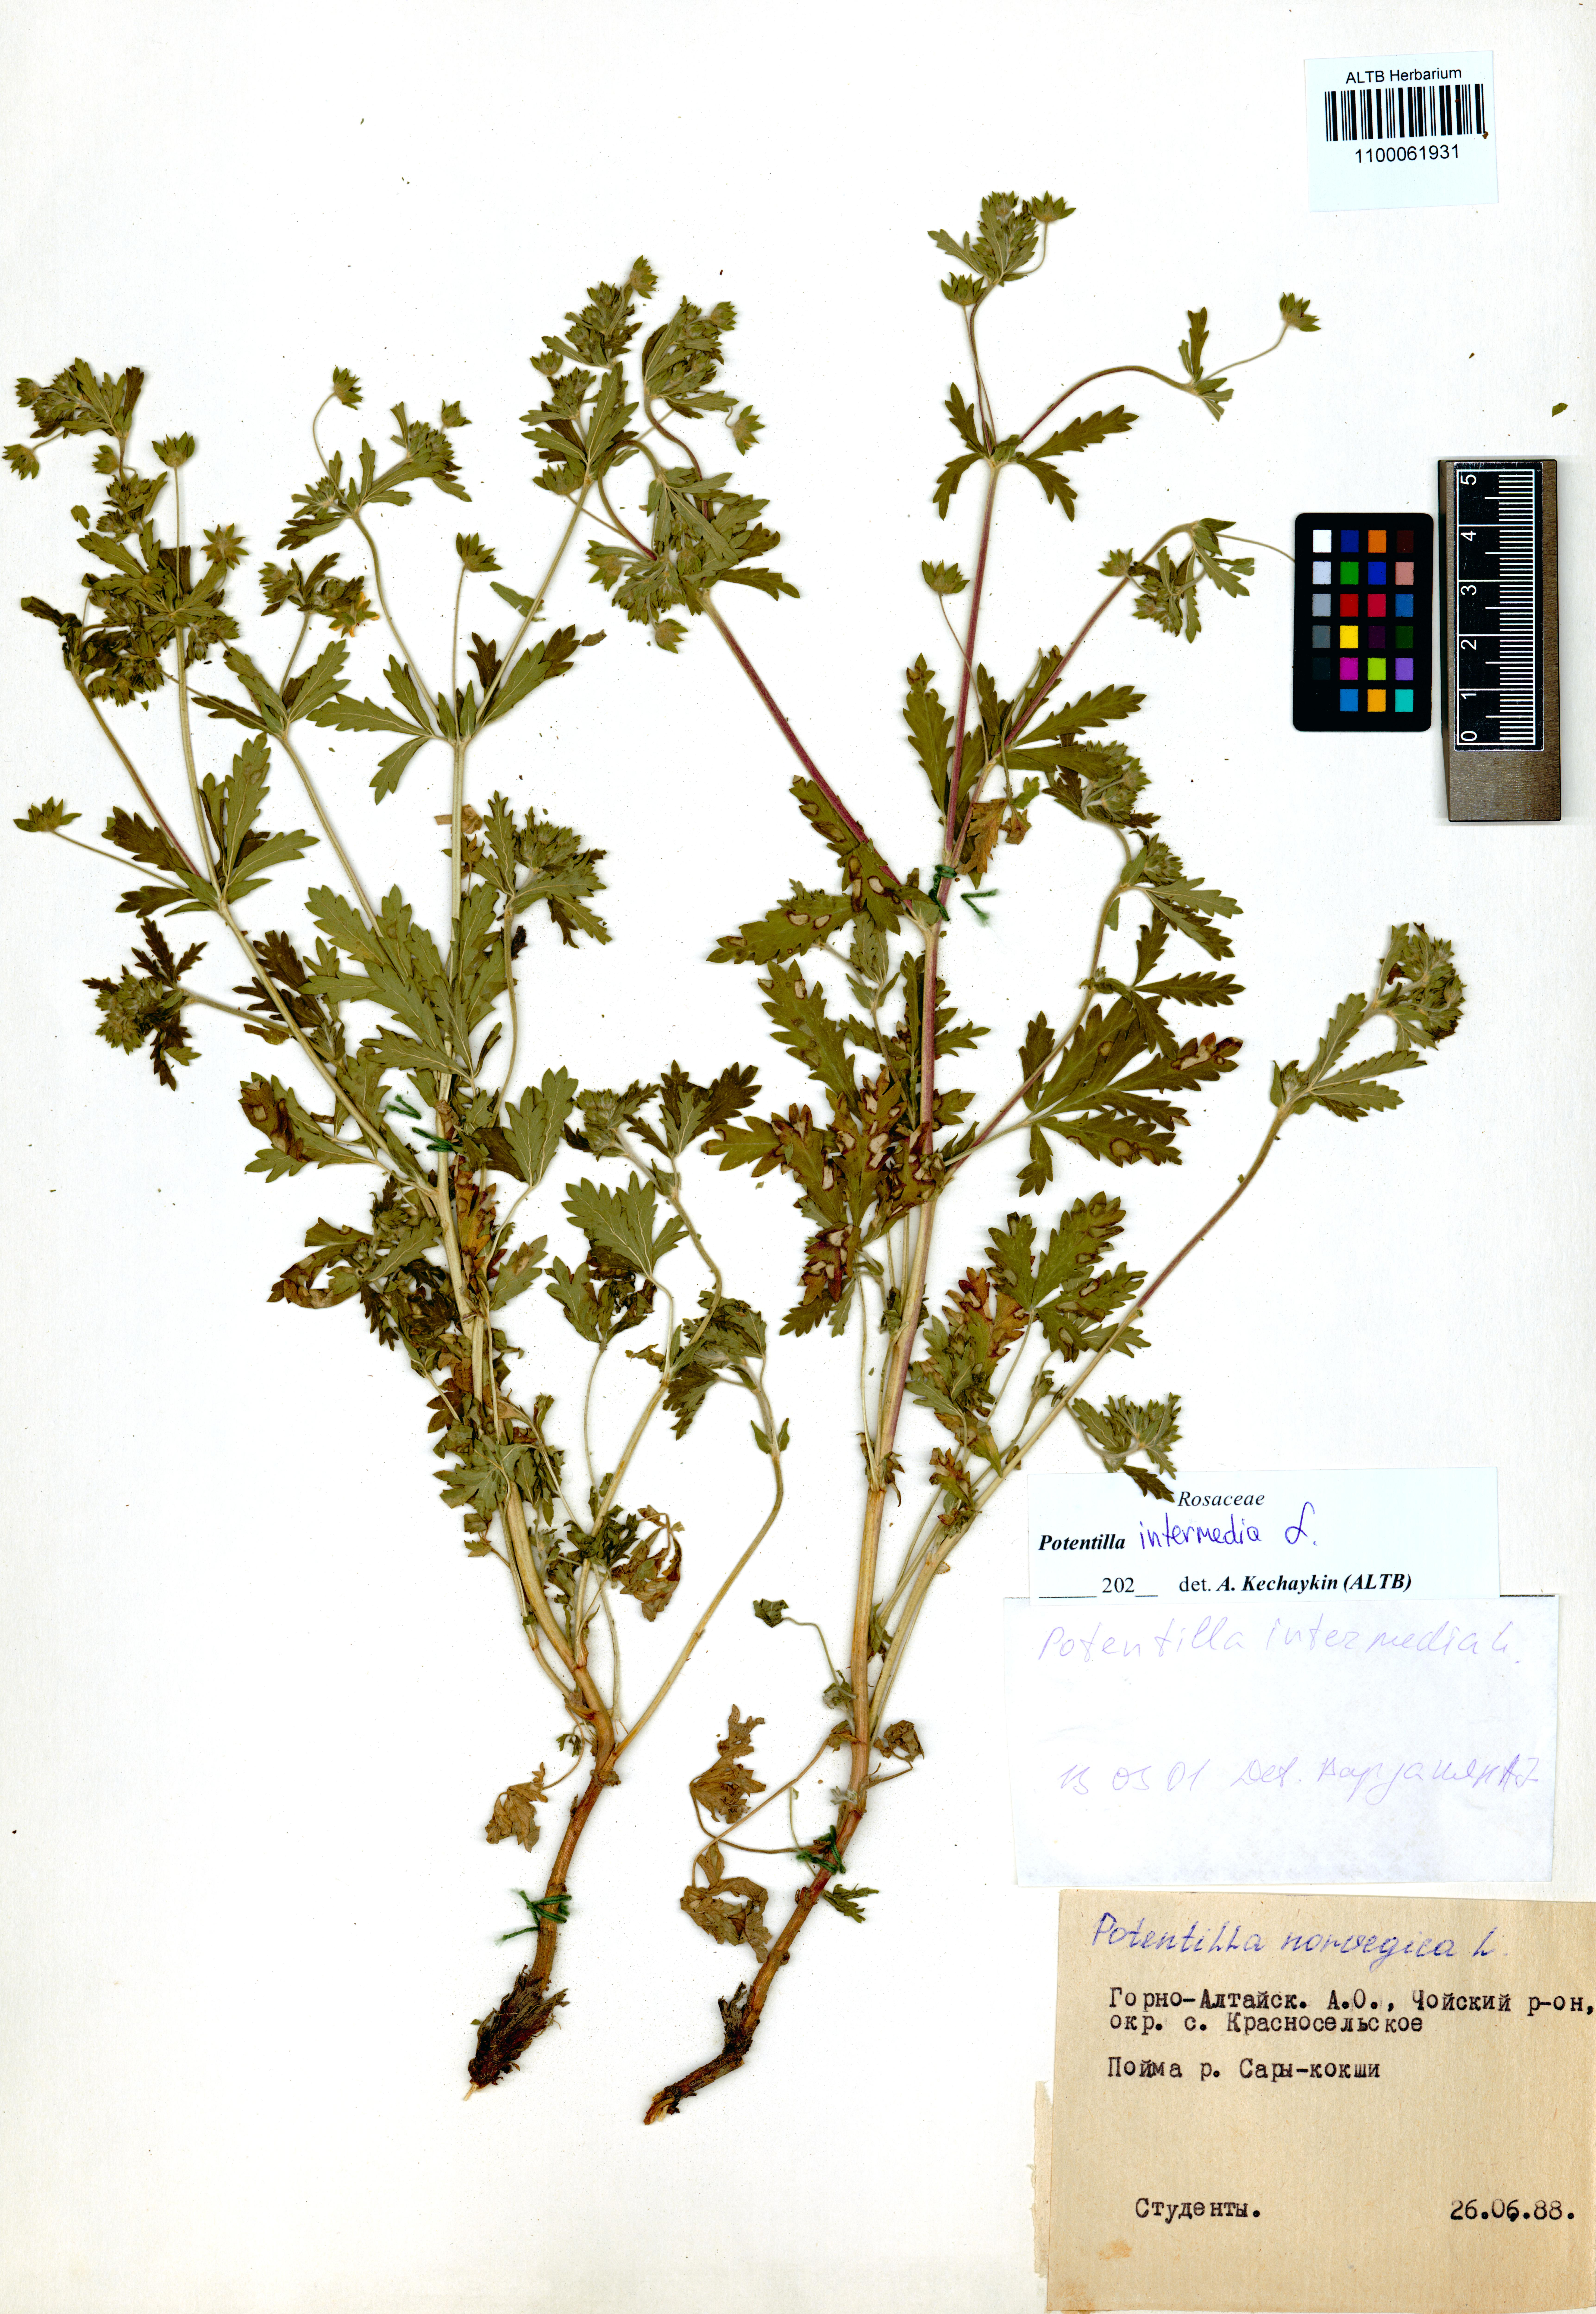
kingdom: Plantae
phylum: Tracheophyta
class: Magnoliopsida
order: Rosales
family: Rosaceae
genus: Potentilla
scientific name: Potentilla intermedia
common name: Downy cinquefoil
